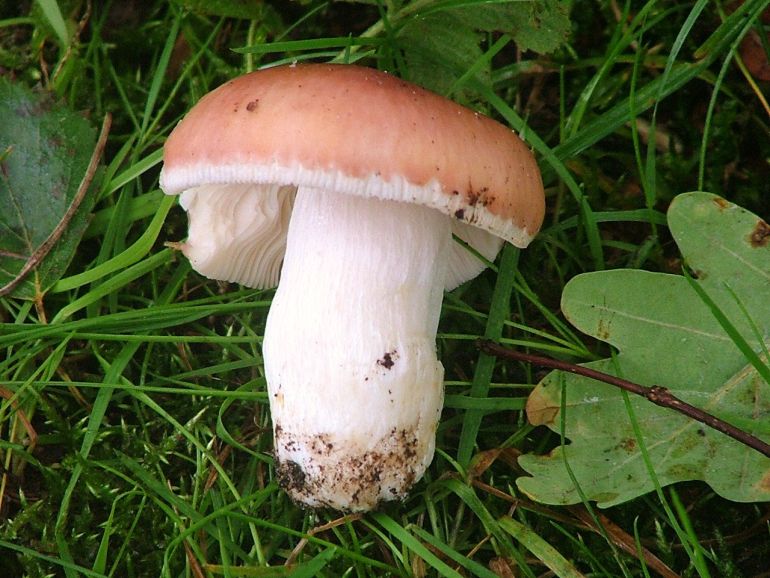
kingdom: Fungi
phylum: Basidiomycota
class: Agaricomycetes
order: Russulales
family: Russulaceae
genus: Russula
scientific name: Russula vesca
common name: spiselig skørhat
